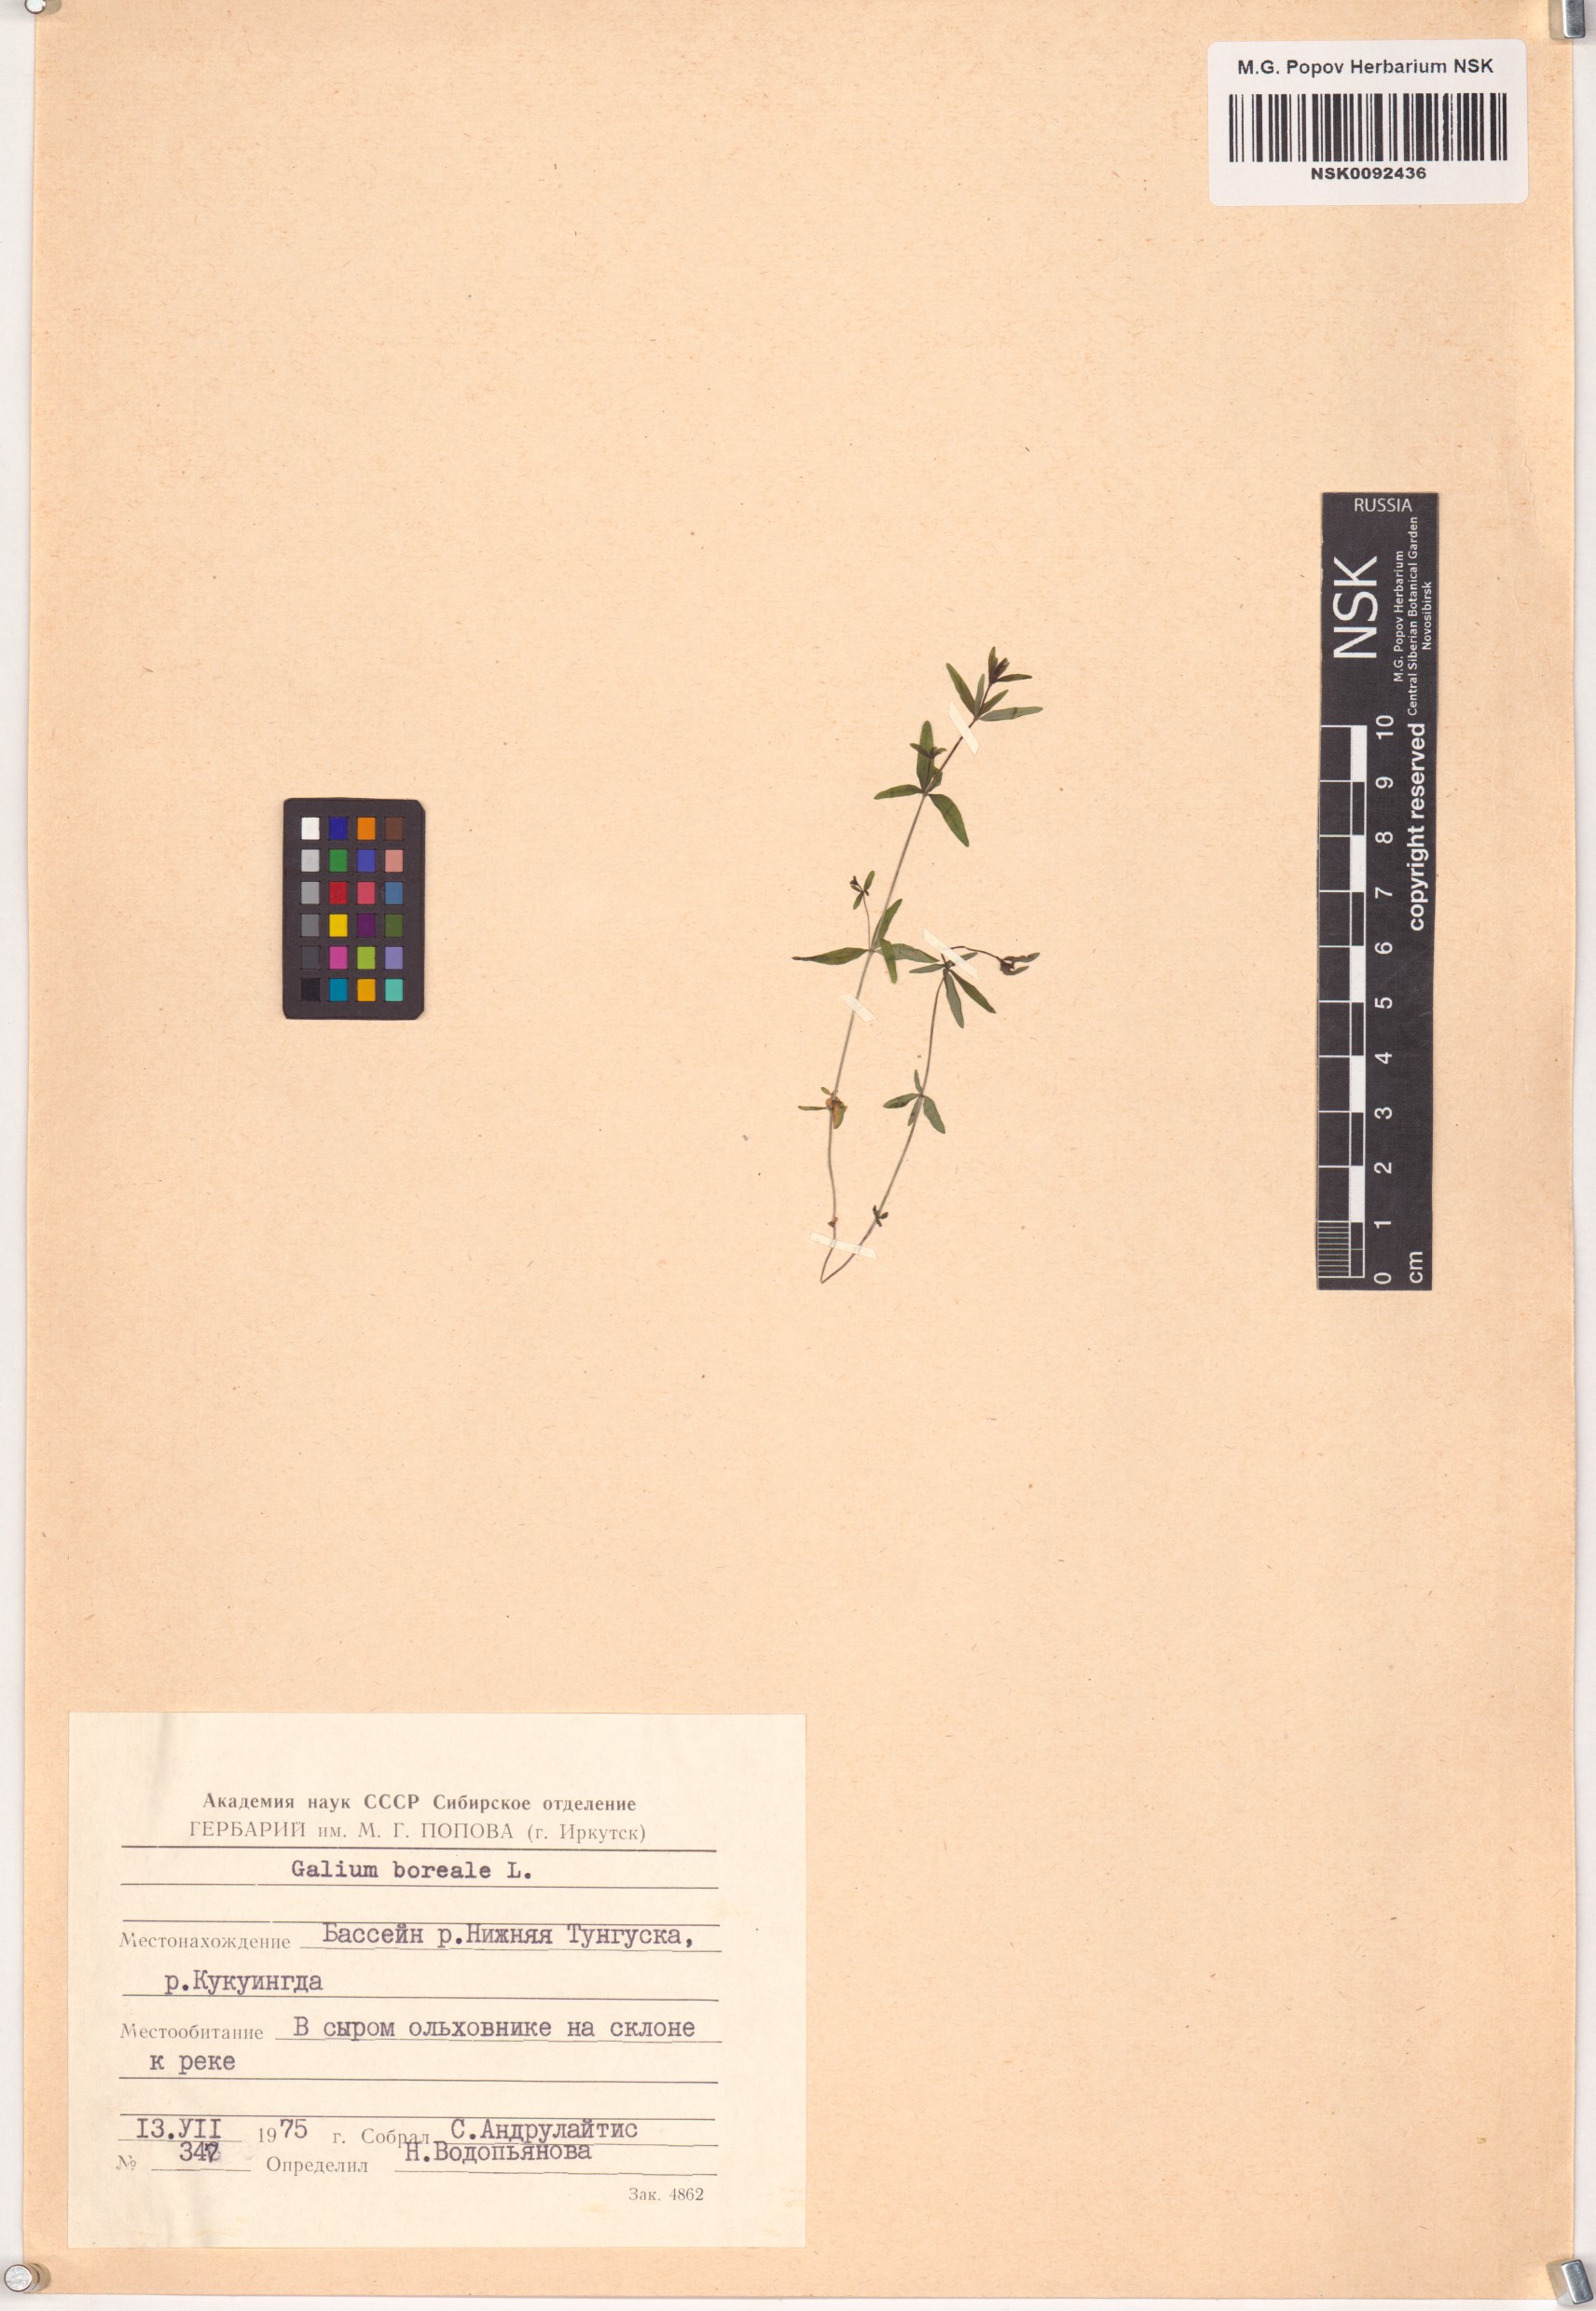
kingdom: Plantae
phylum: Tracheophyta
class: Magnoliopsida
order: Gentianales
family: Rubiaceae
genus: Galium
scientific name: Galium boreale
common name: Northern bedstraw
